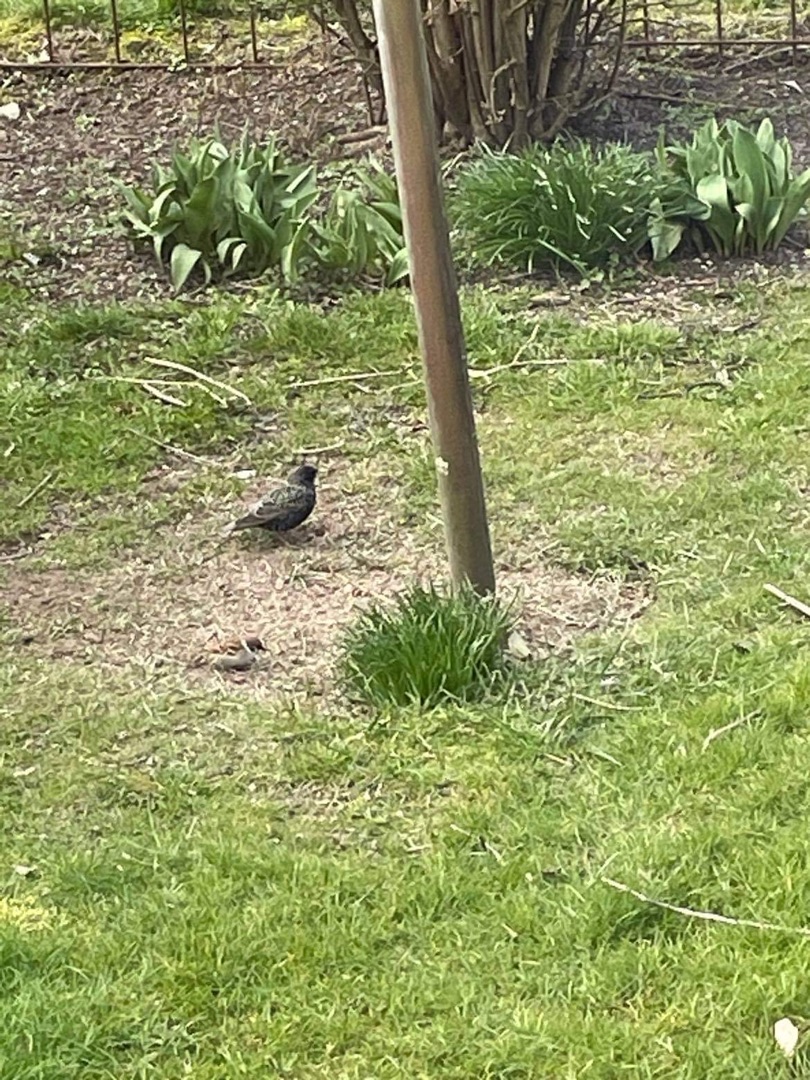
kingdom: Animalia
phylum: Chordata
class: Aves
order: Passeriformes
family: Sturnidae
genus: Sturnus
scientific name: Sturnus vulgaris
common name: Stær
